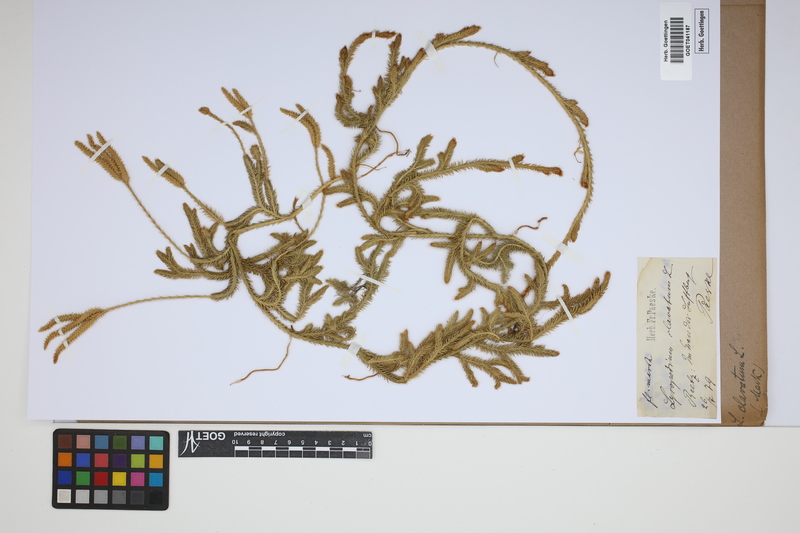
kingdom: Plantae
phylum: Tracheophyta
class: Lycopodiopsida
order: Lycopodiales
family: Lycopodiaceae
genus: Lycopodium
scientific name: Lycopodium clavatum
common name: Stag's-horn clubmoss
